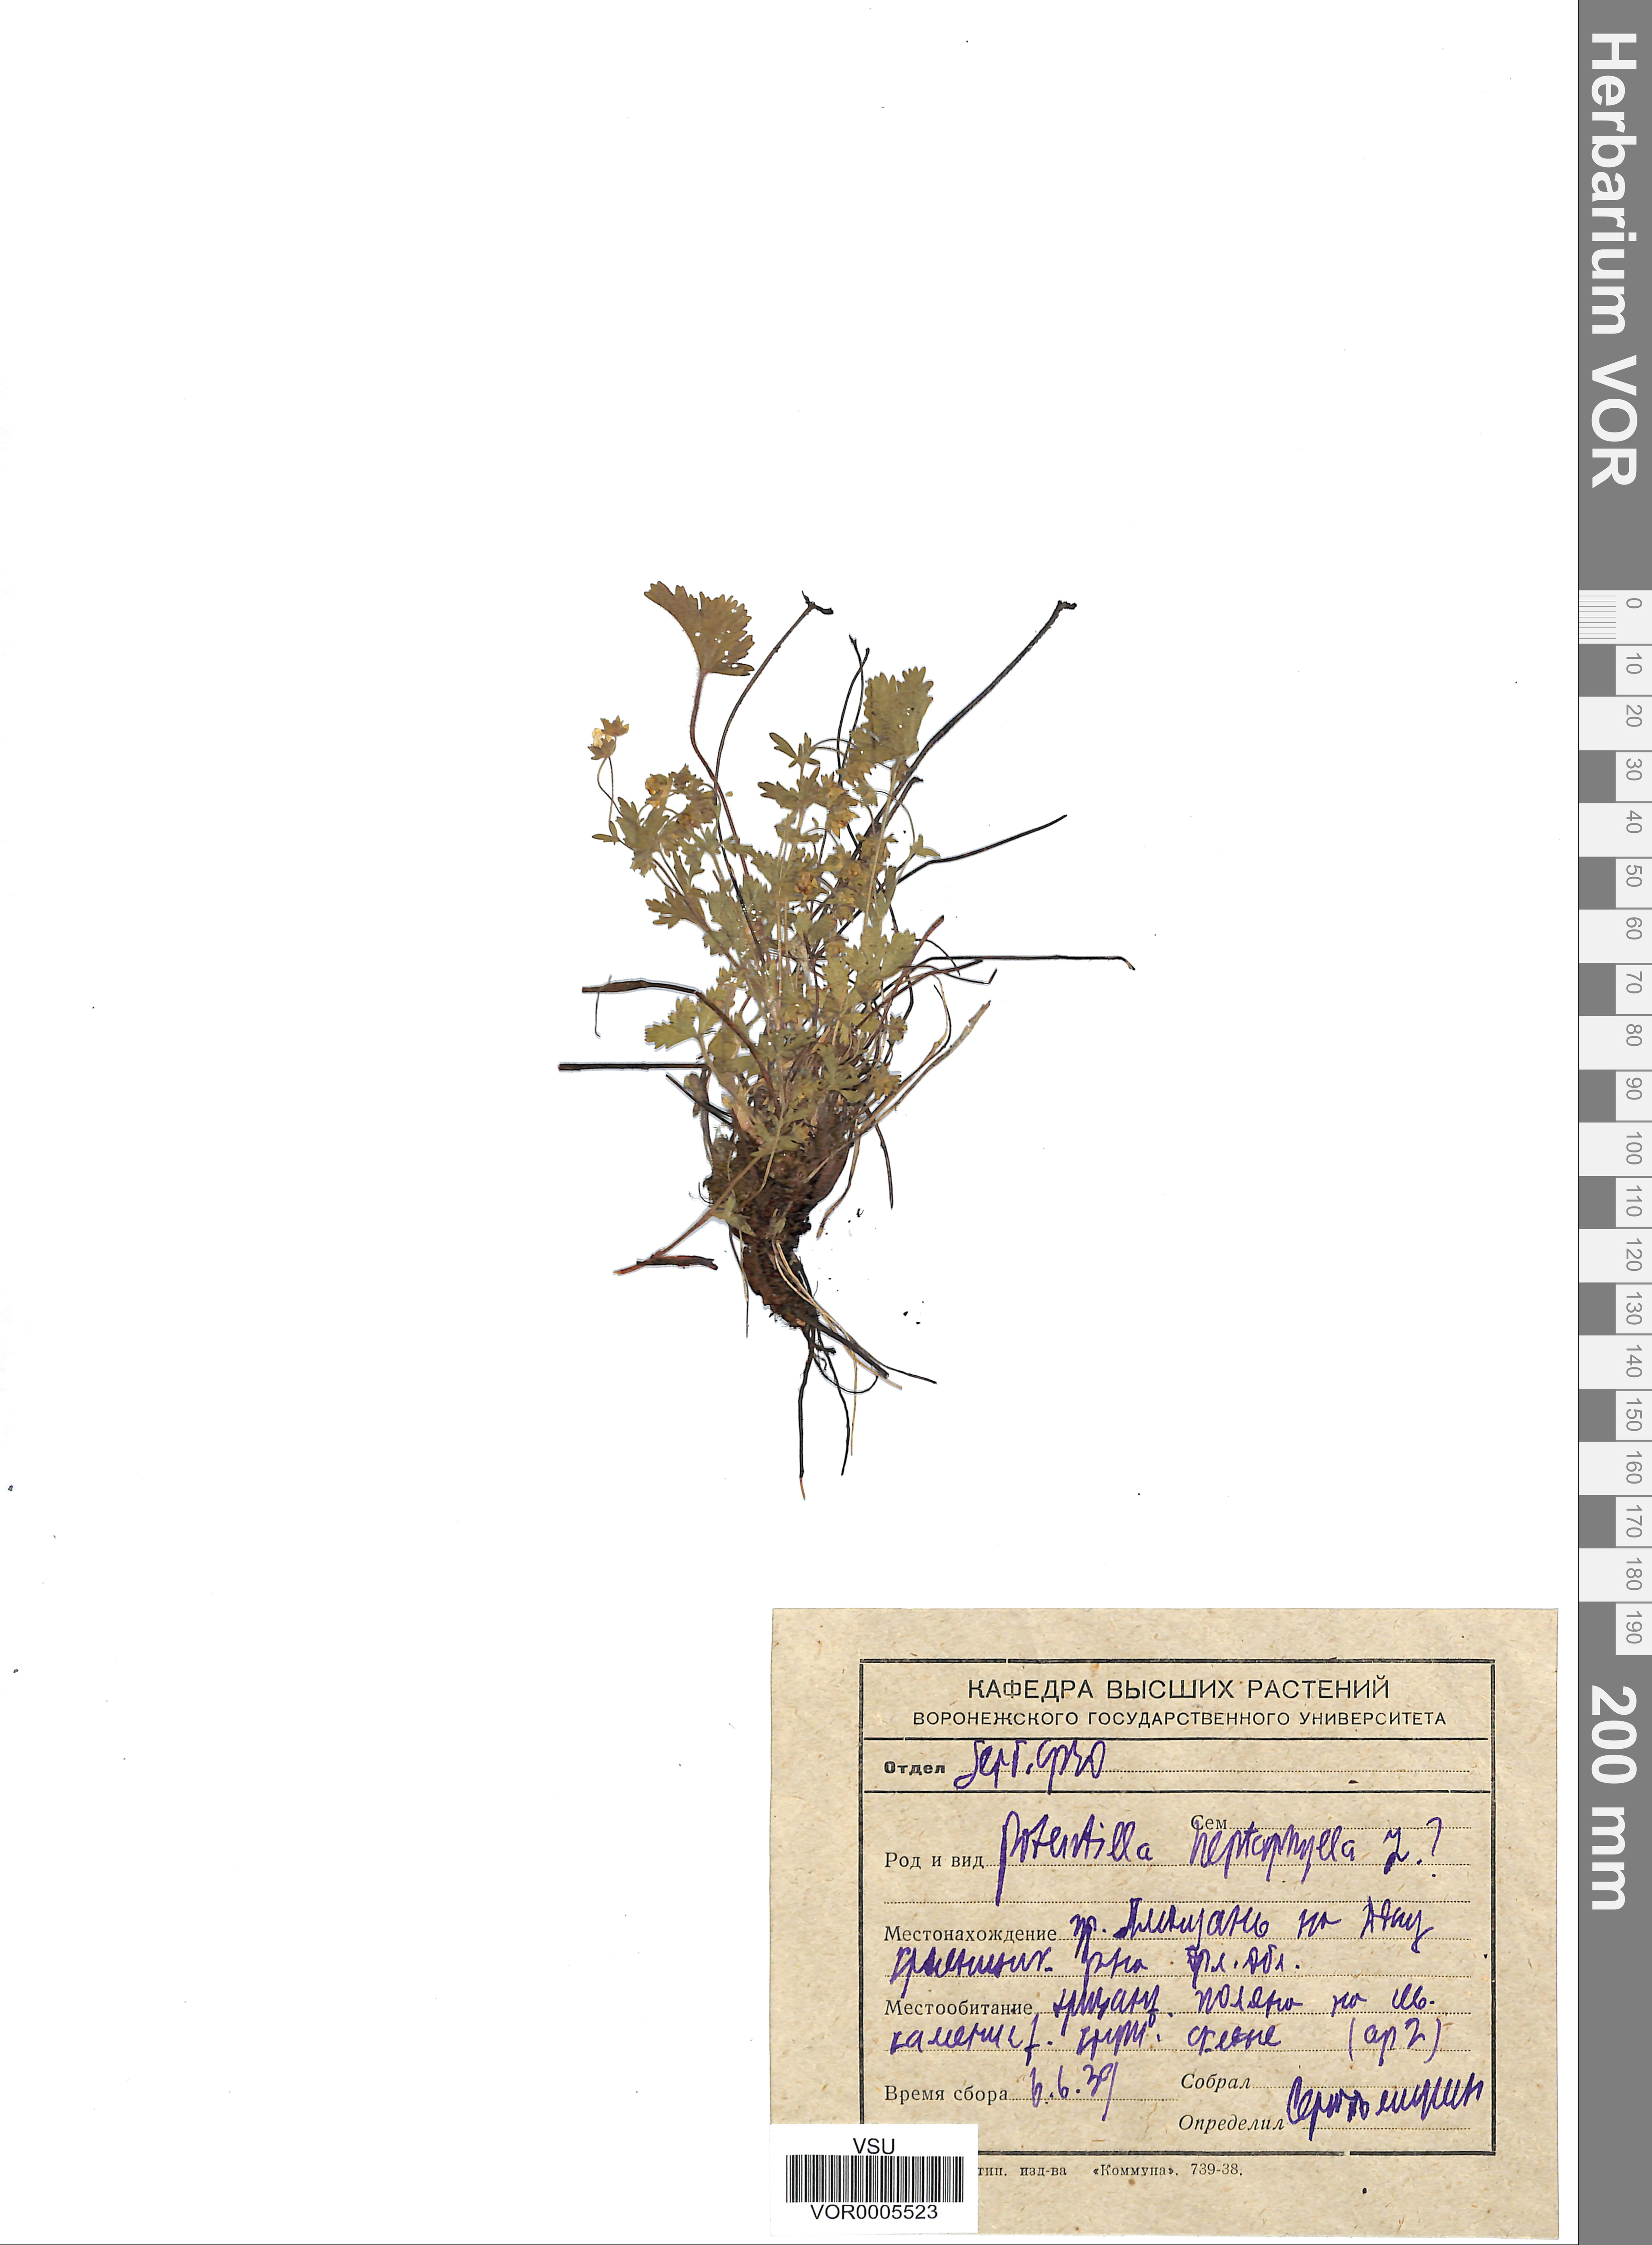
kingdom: Plantae
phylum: Tracheophyta
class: Magnoliopsida
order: Rosales
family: Rosaceae
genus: Potentilla
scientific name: Potentilla heptaphylla
